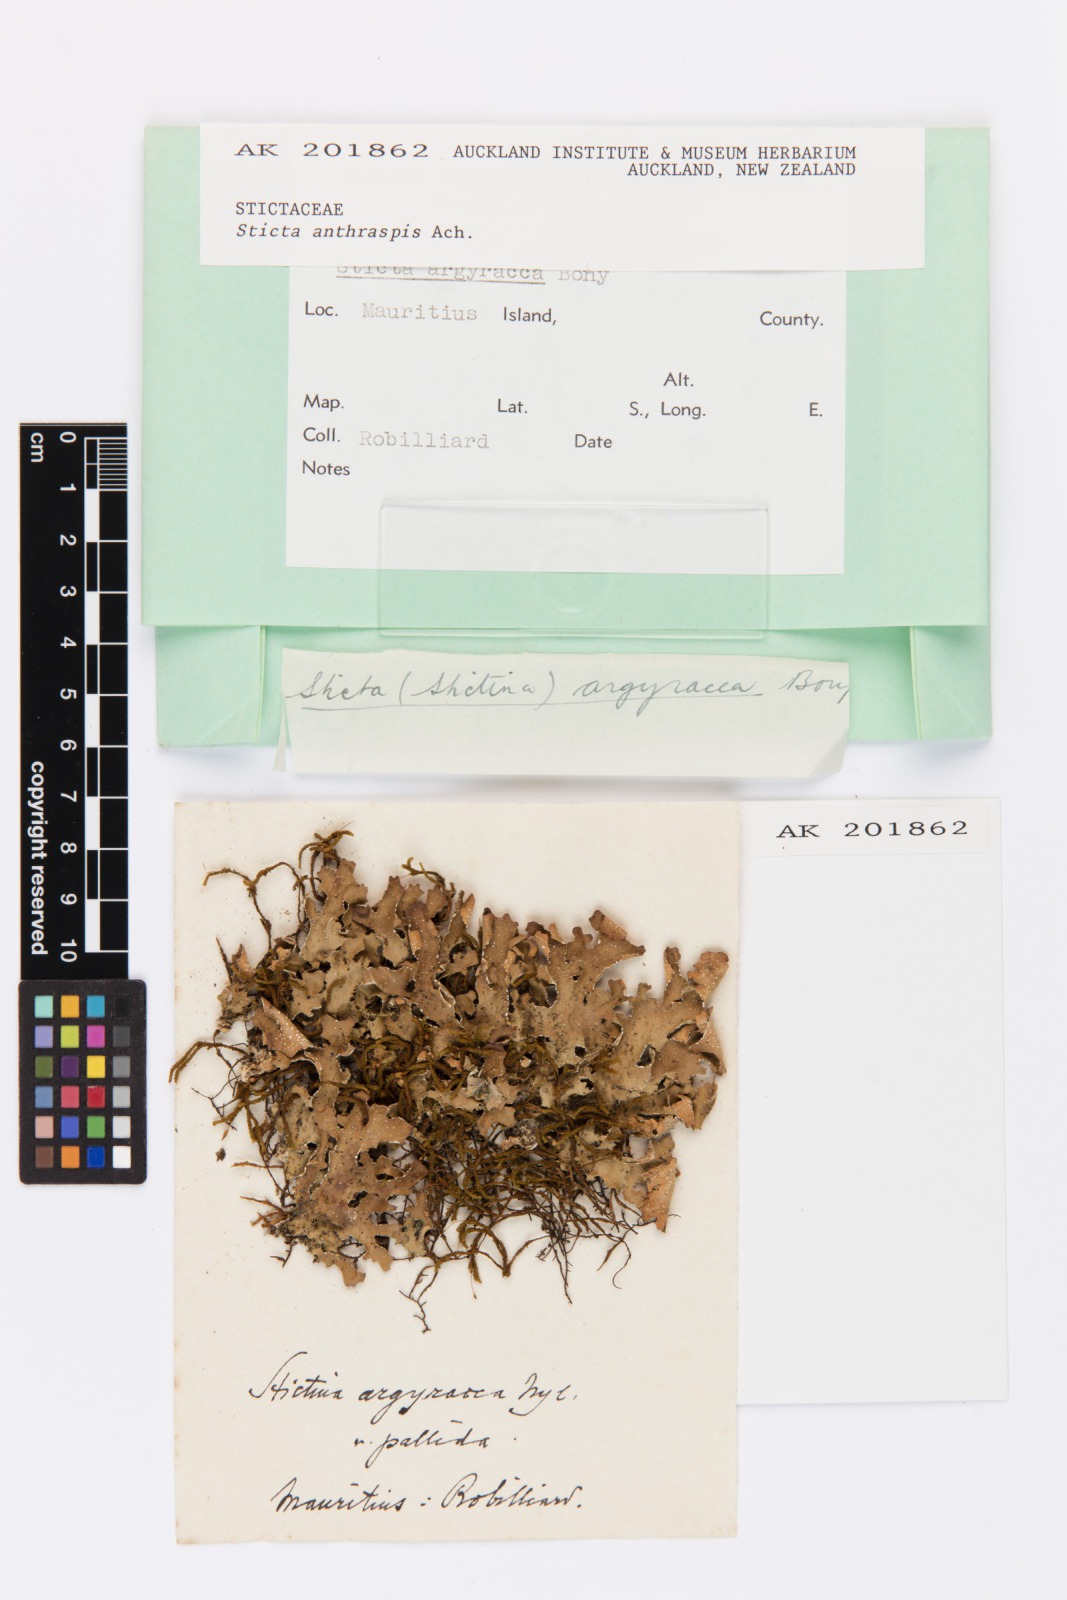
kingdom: Fungi
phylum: Ascomycota
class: Lecanoromycetes
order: Peltigerales
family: Lobariaceae
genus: Lobaria
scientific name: Lobaria anthraspis
